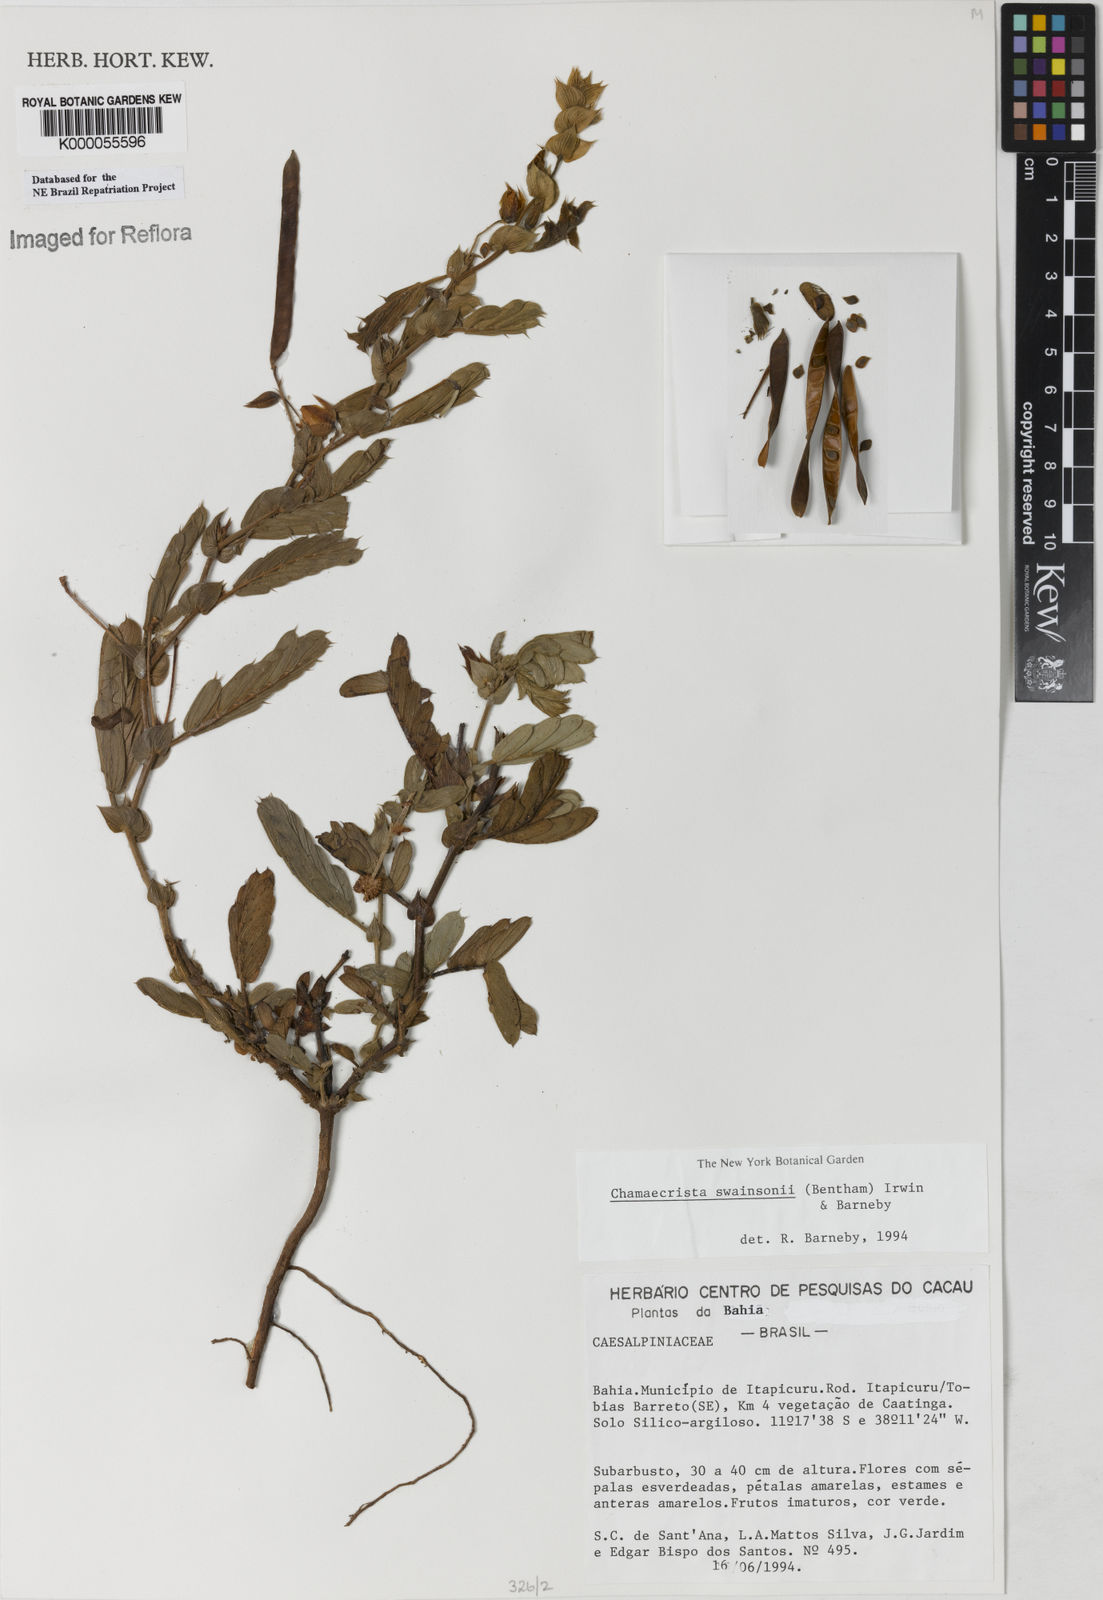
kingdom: Plantae
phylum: Tracheophyta
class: Magnoliopsida
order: Fabales
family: Fabaceae
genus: Chamaecrista
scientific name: Chamaecrista swainsonii
